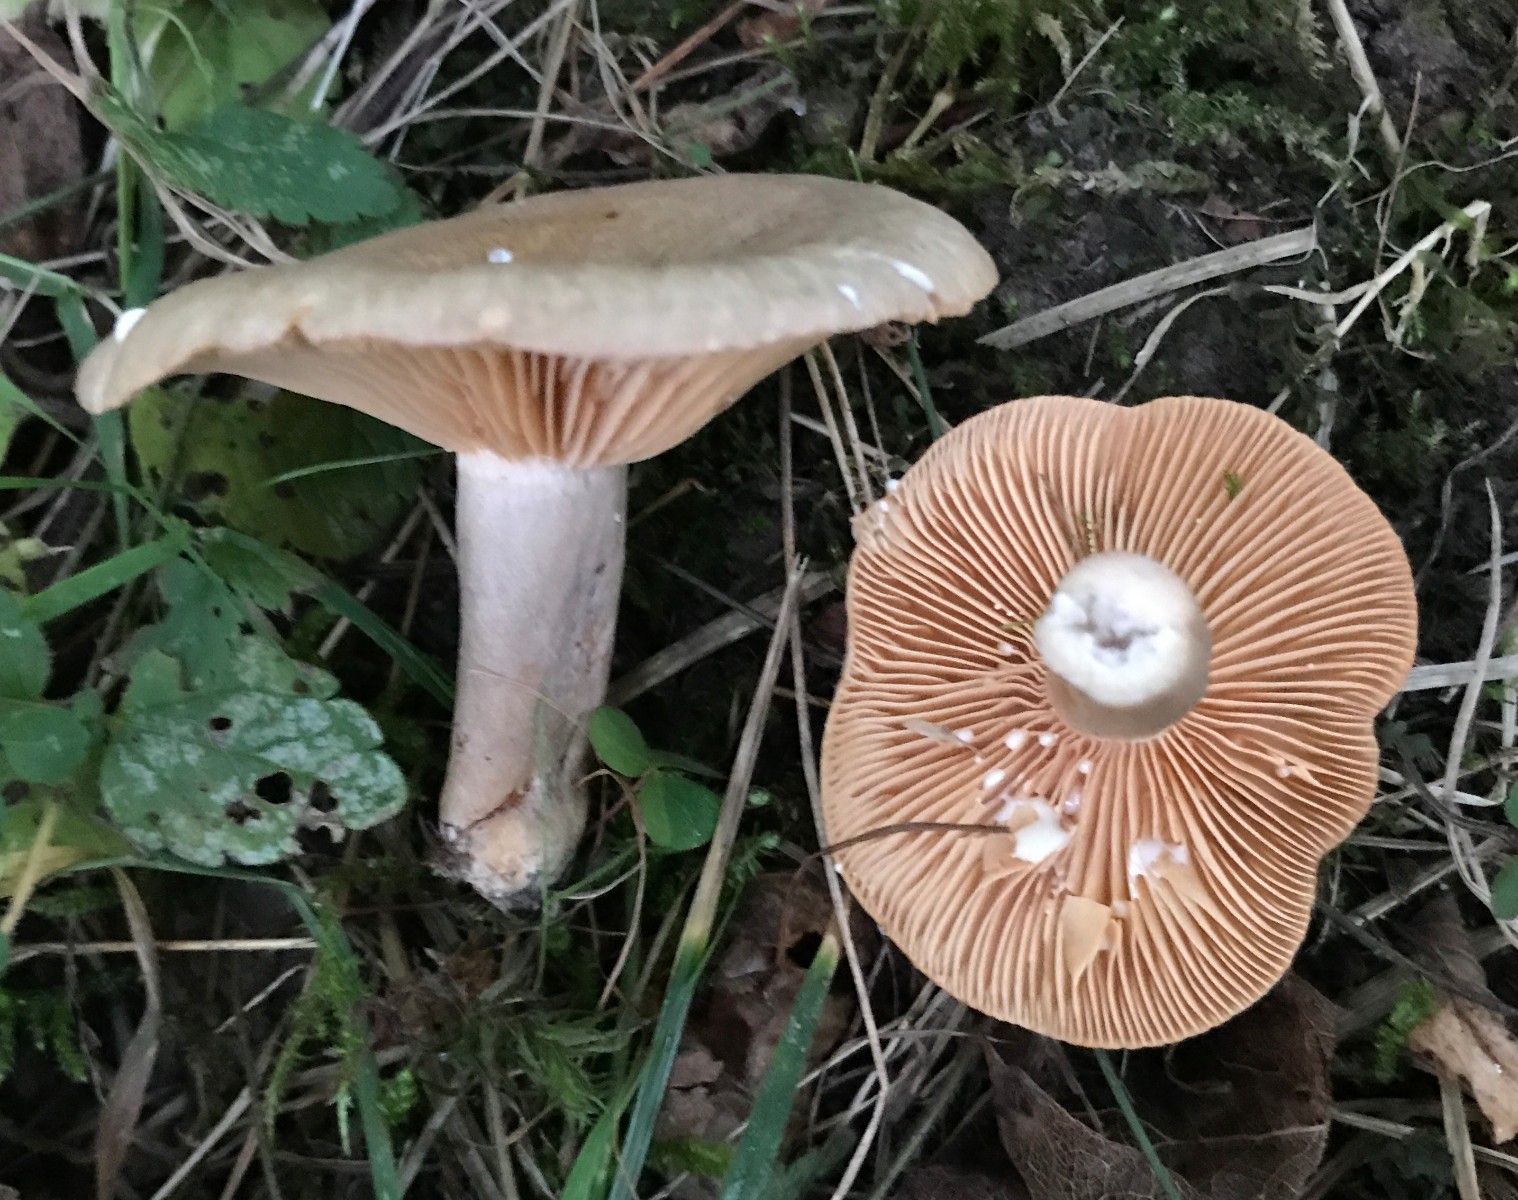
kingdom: Fungi
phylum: Basidiomycota
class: Agaricomycetes
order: Russulales
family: Russulaceae
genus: Lactarius
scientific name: Lactarius pyrogalus
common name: hassel-mælkehat
